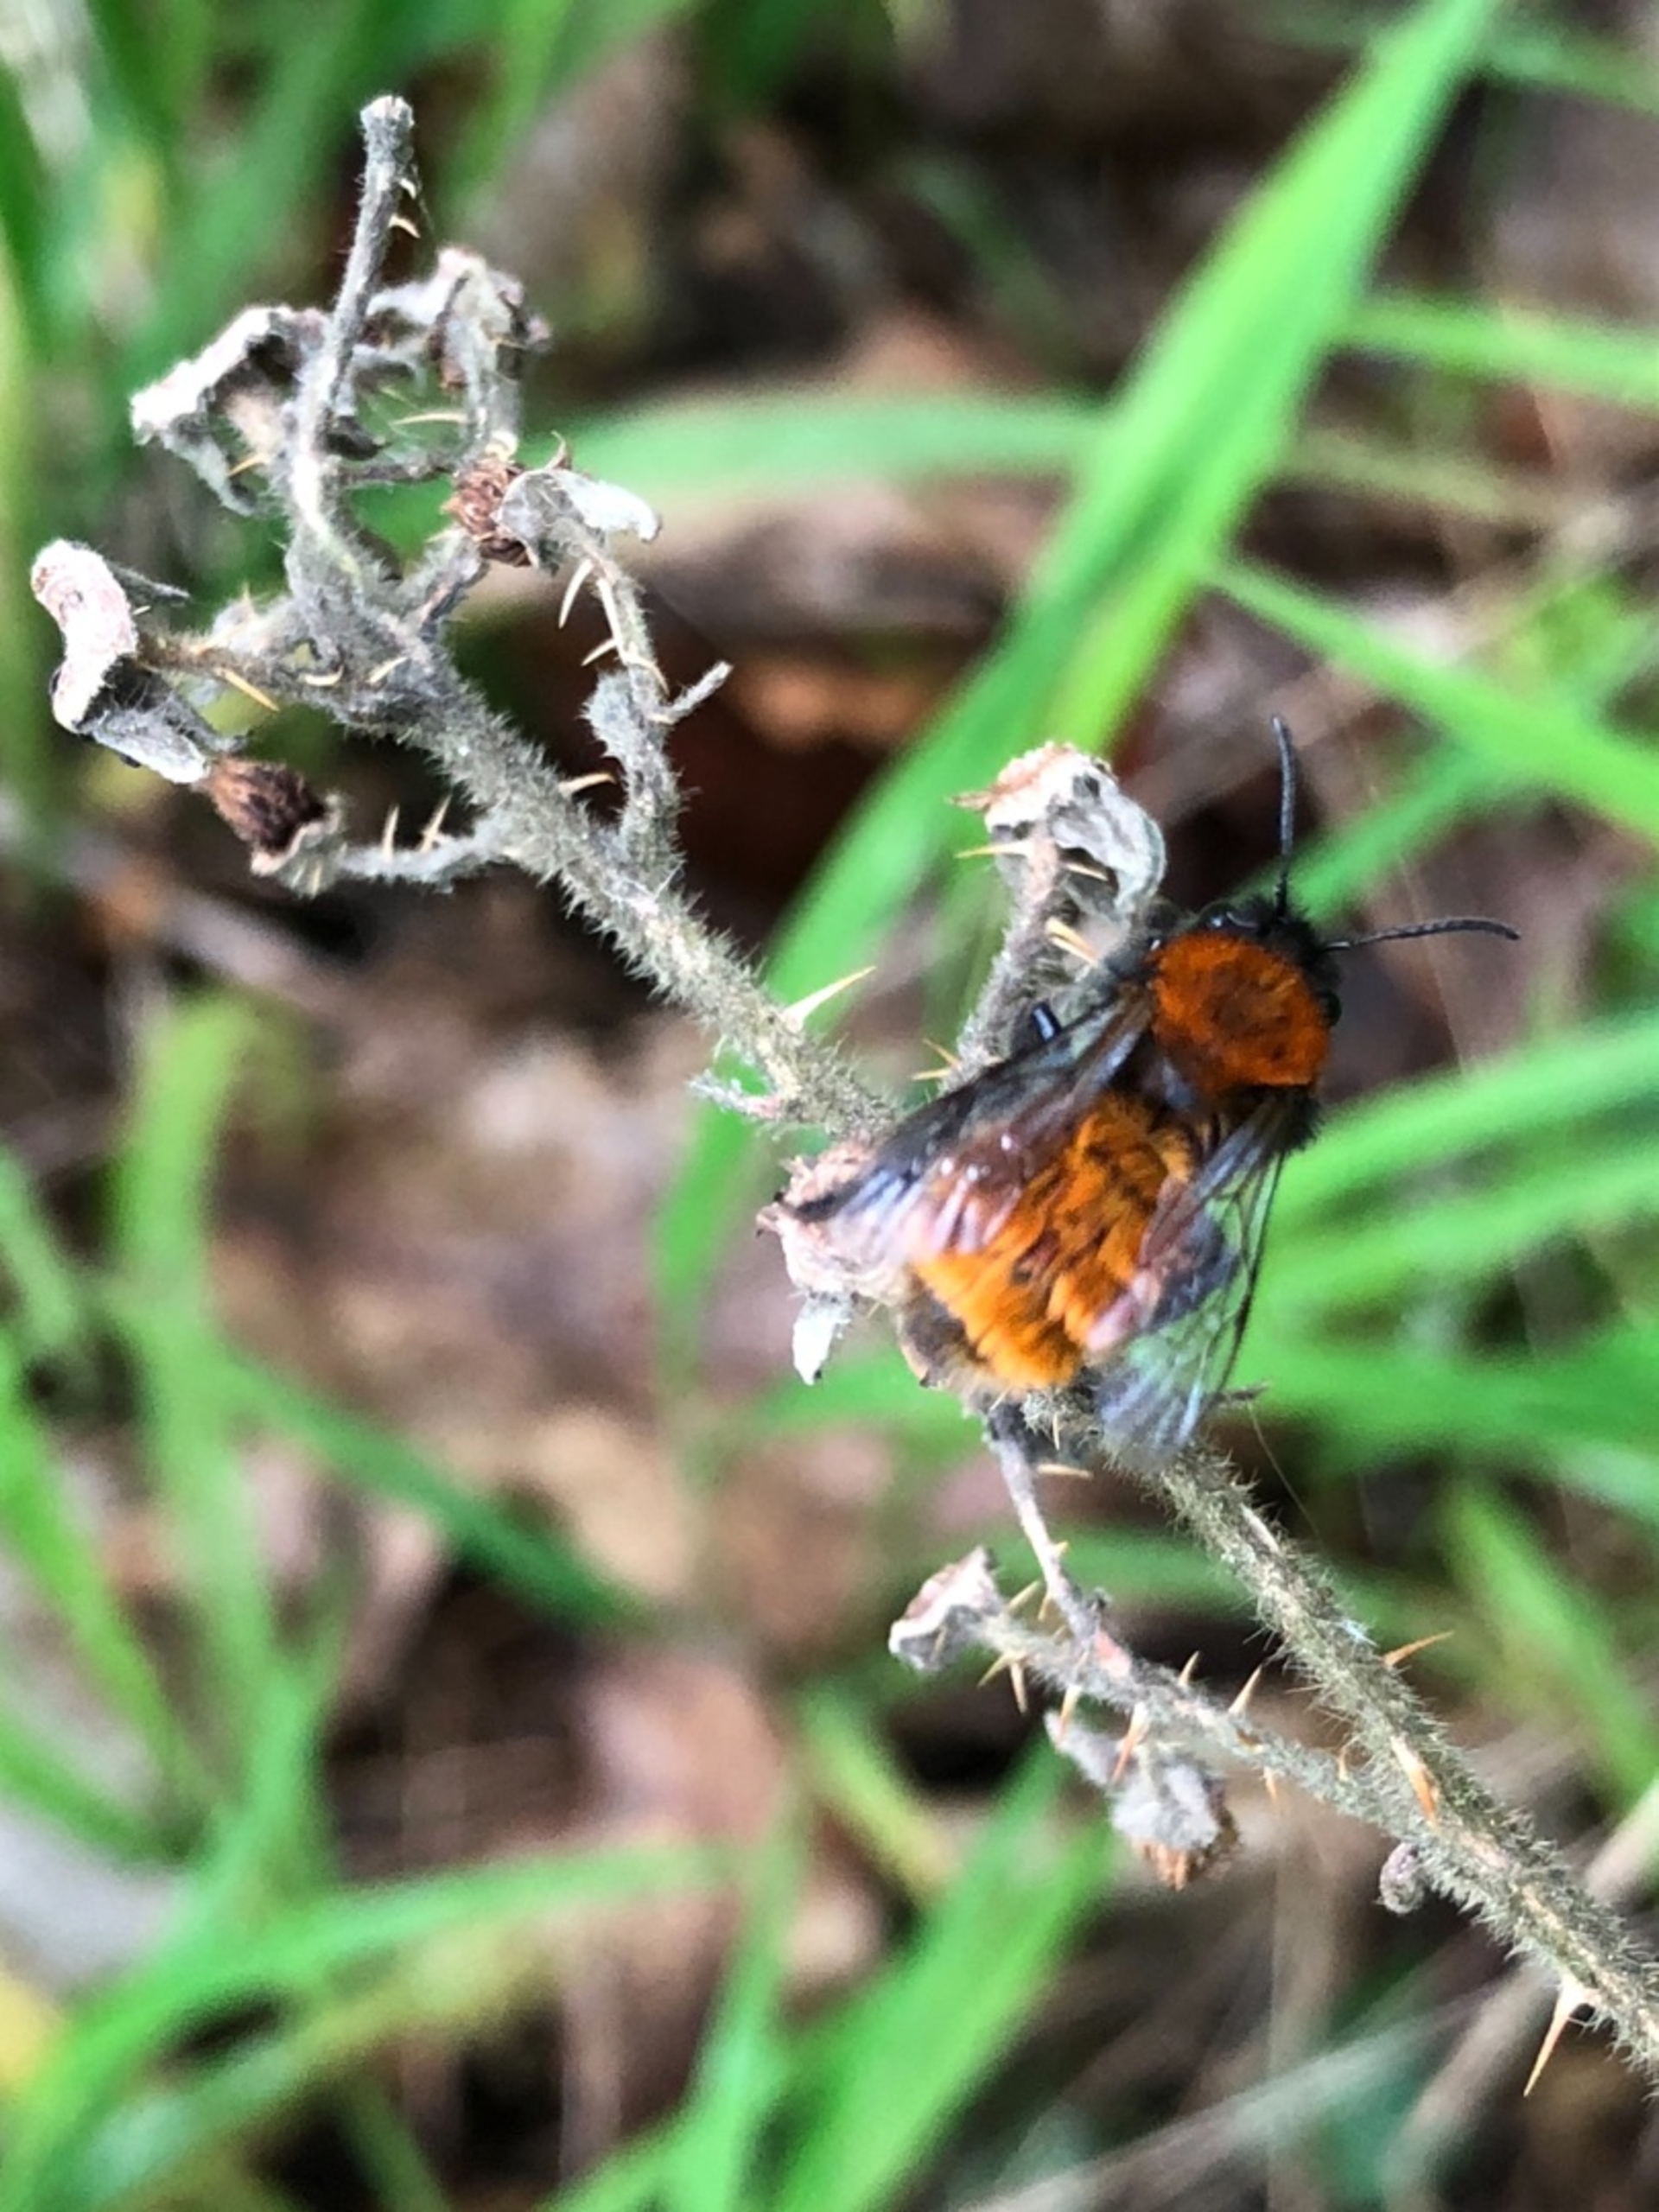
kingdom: Animalia
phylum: Arthropoda
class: Insecta
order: Hymenoptera
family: Andrenidae
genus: Andrena
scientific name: Andrena fulva
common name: Rødpelset jordbi
